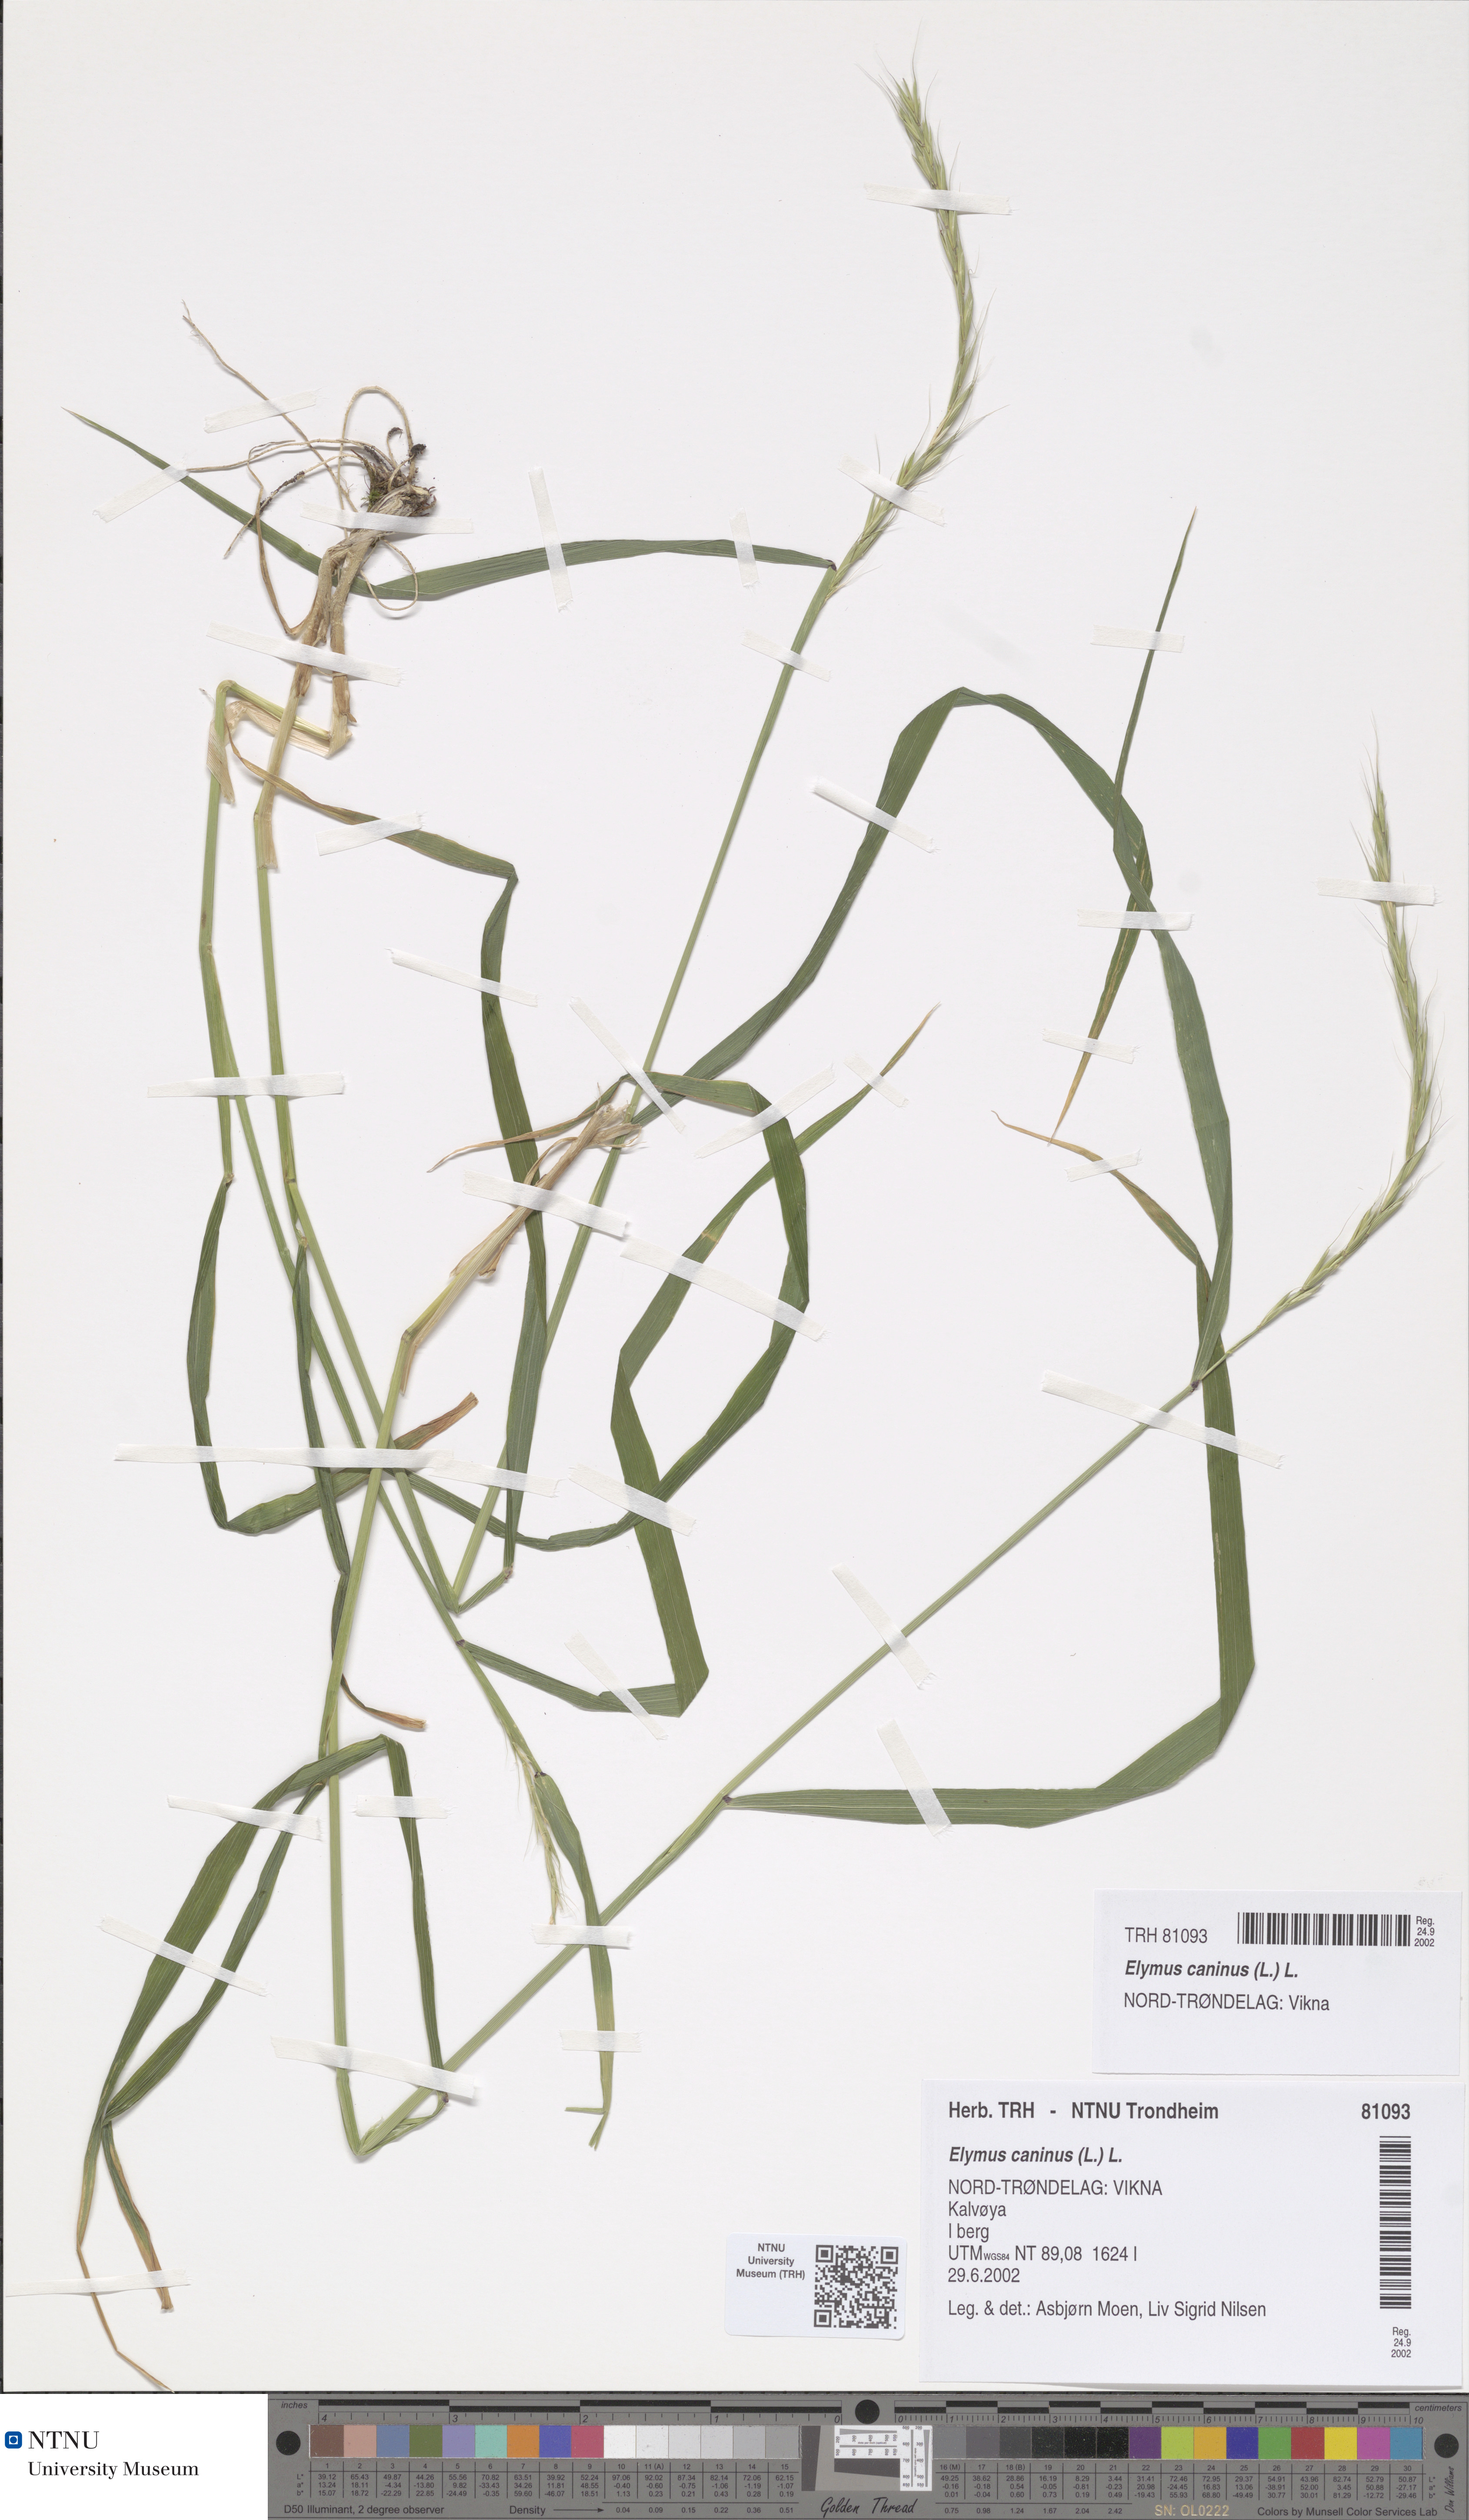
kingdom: Plantae
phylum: Tracheophyta
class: Liliopsida
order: Poales
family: Poaceae
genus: Elymus
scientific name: Elymus caninus
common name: Bearded couch
